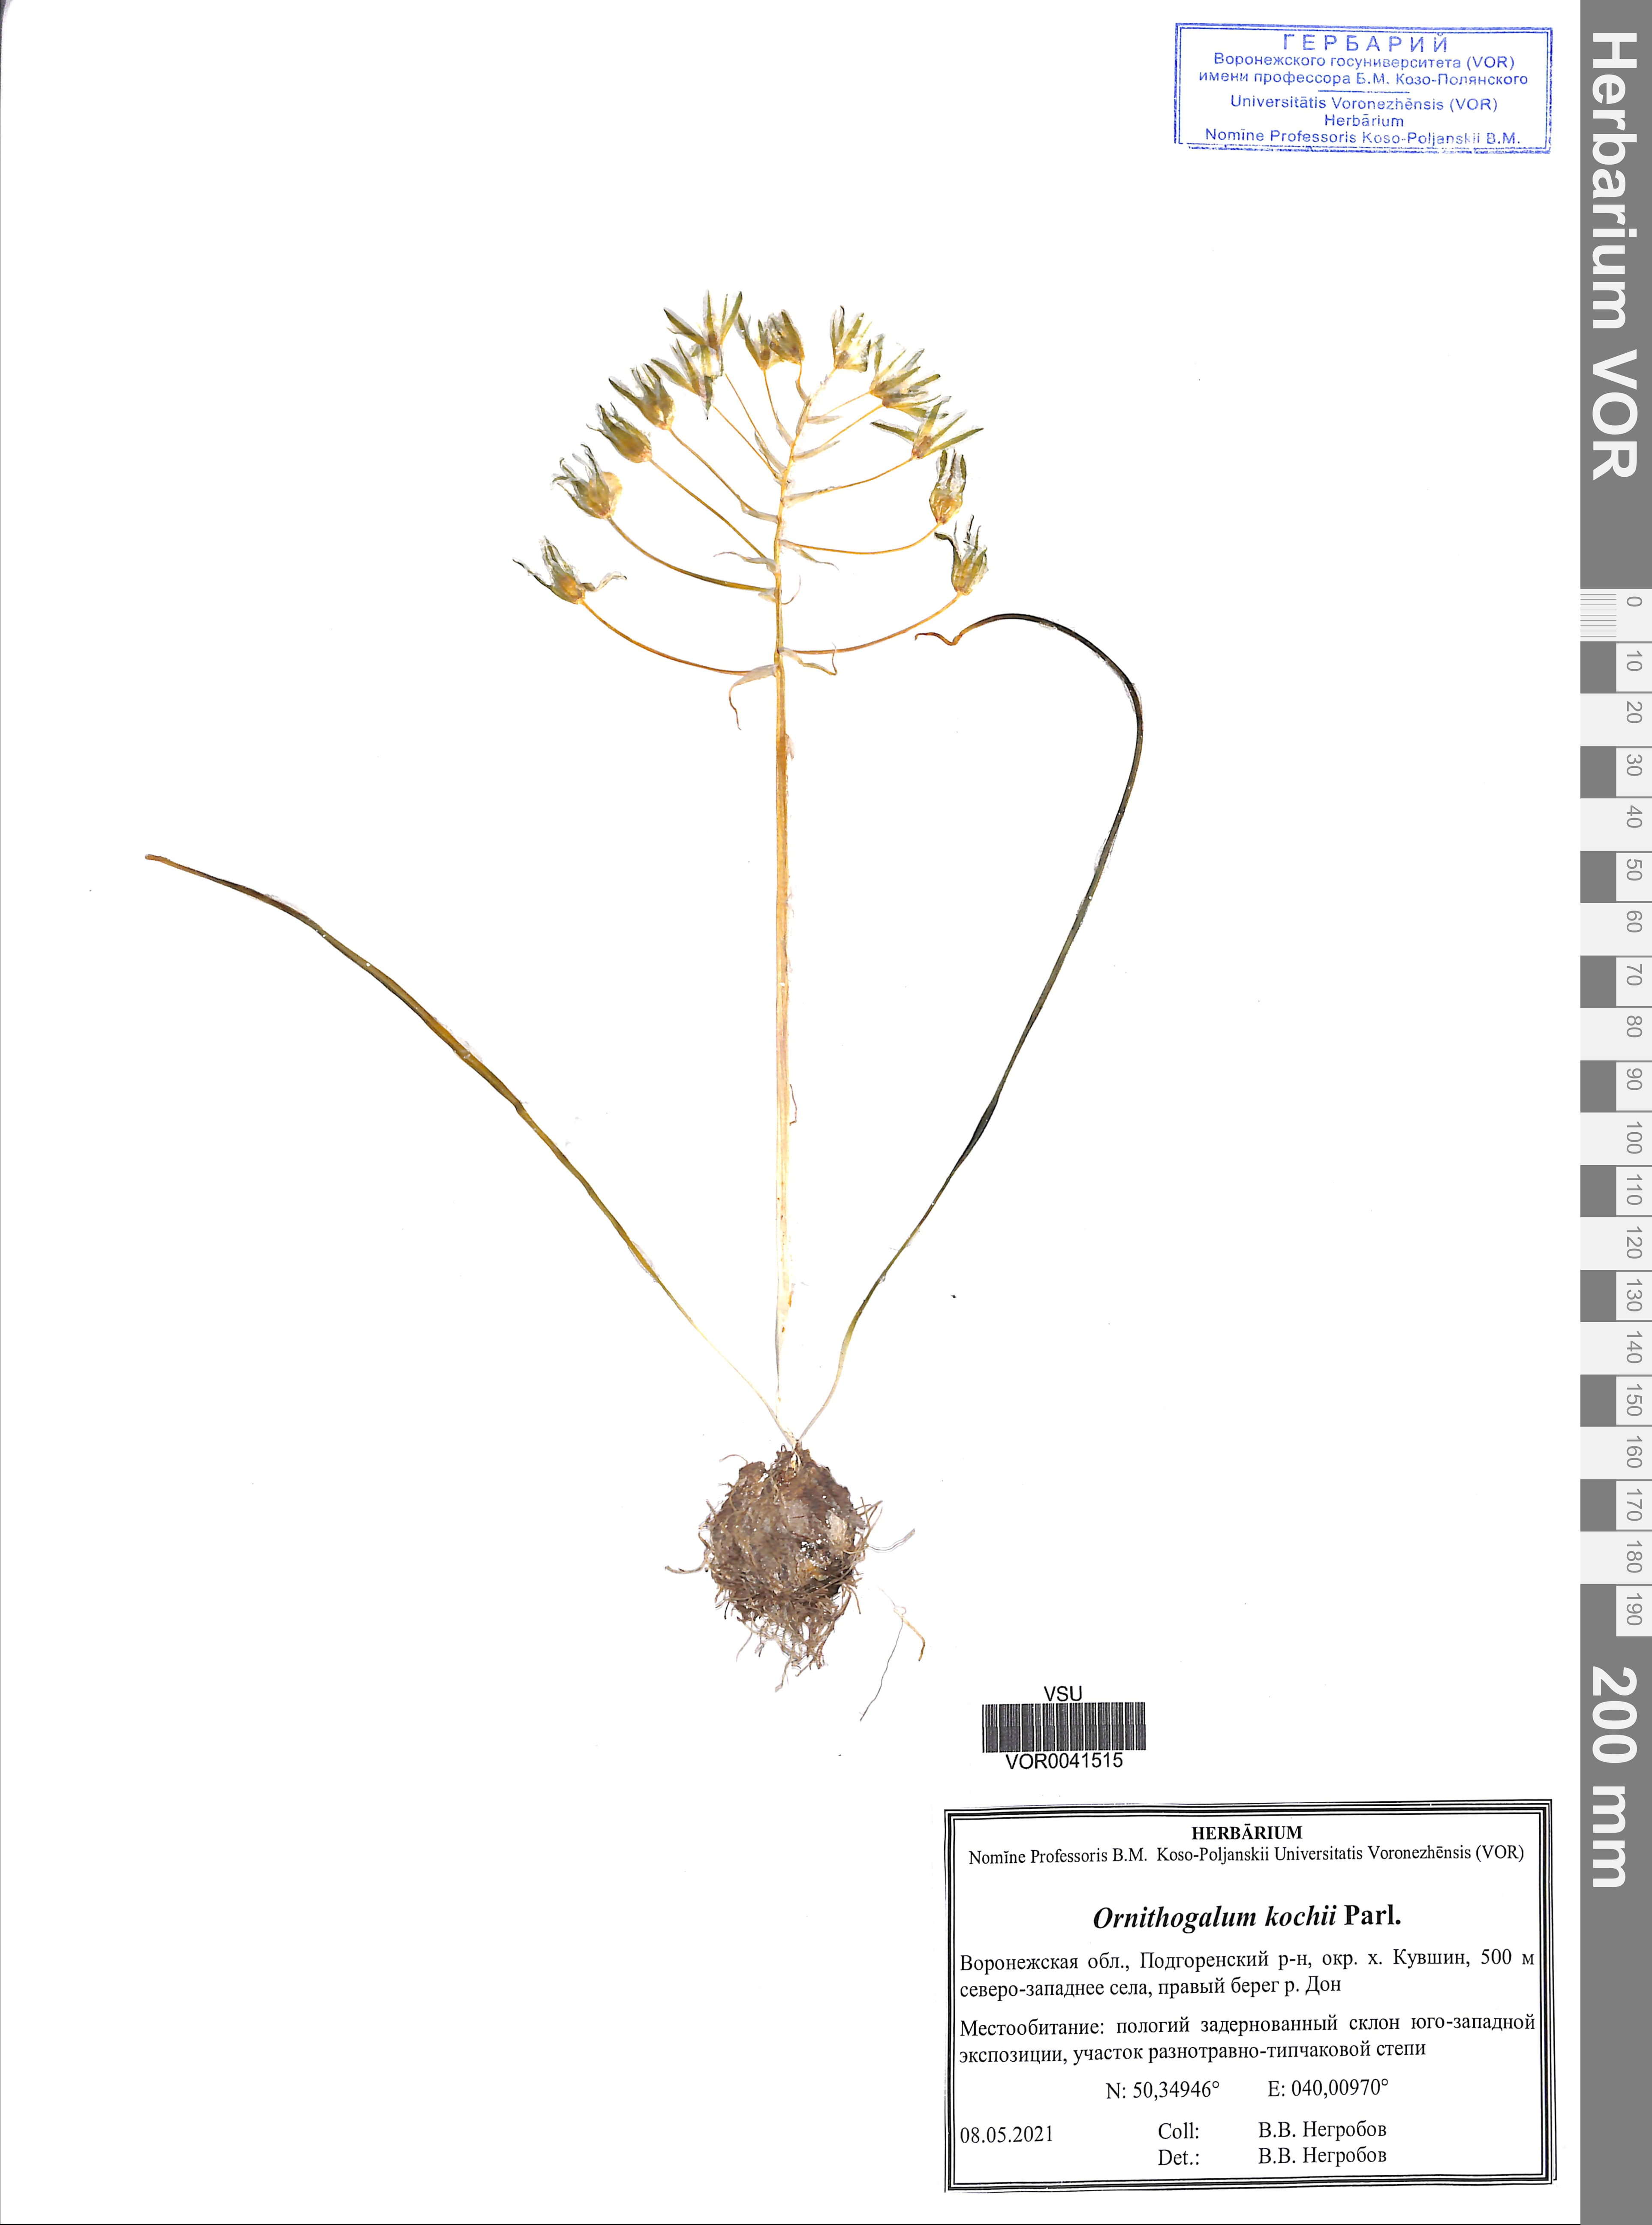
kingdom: Plantae
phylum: Tracheophyta
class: Liliopsida
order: Asparagales
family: Asparagaceae
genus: Ornithogalum
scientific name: Ornithogalum orthophyllum
